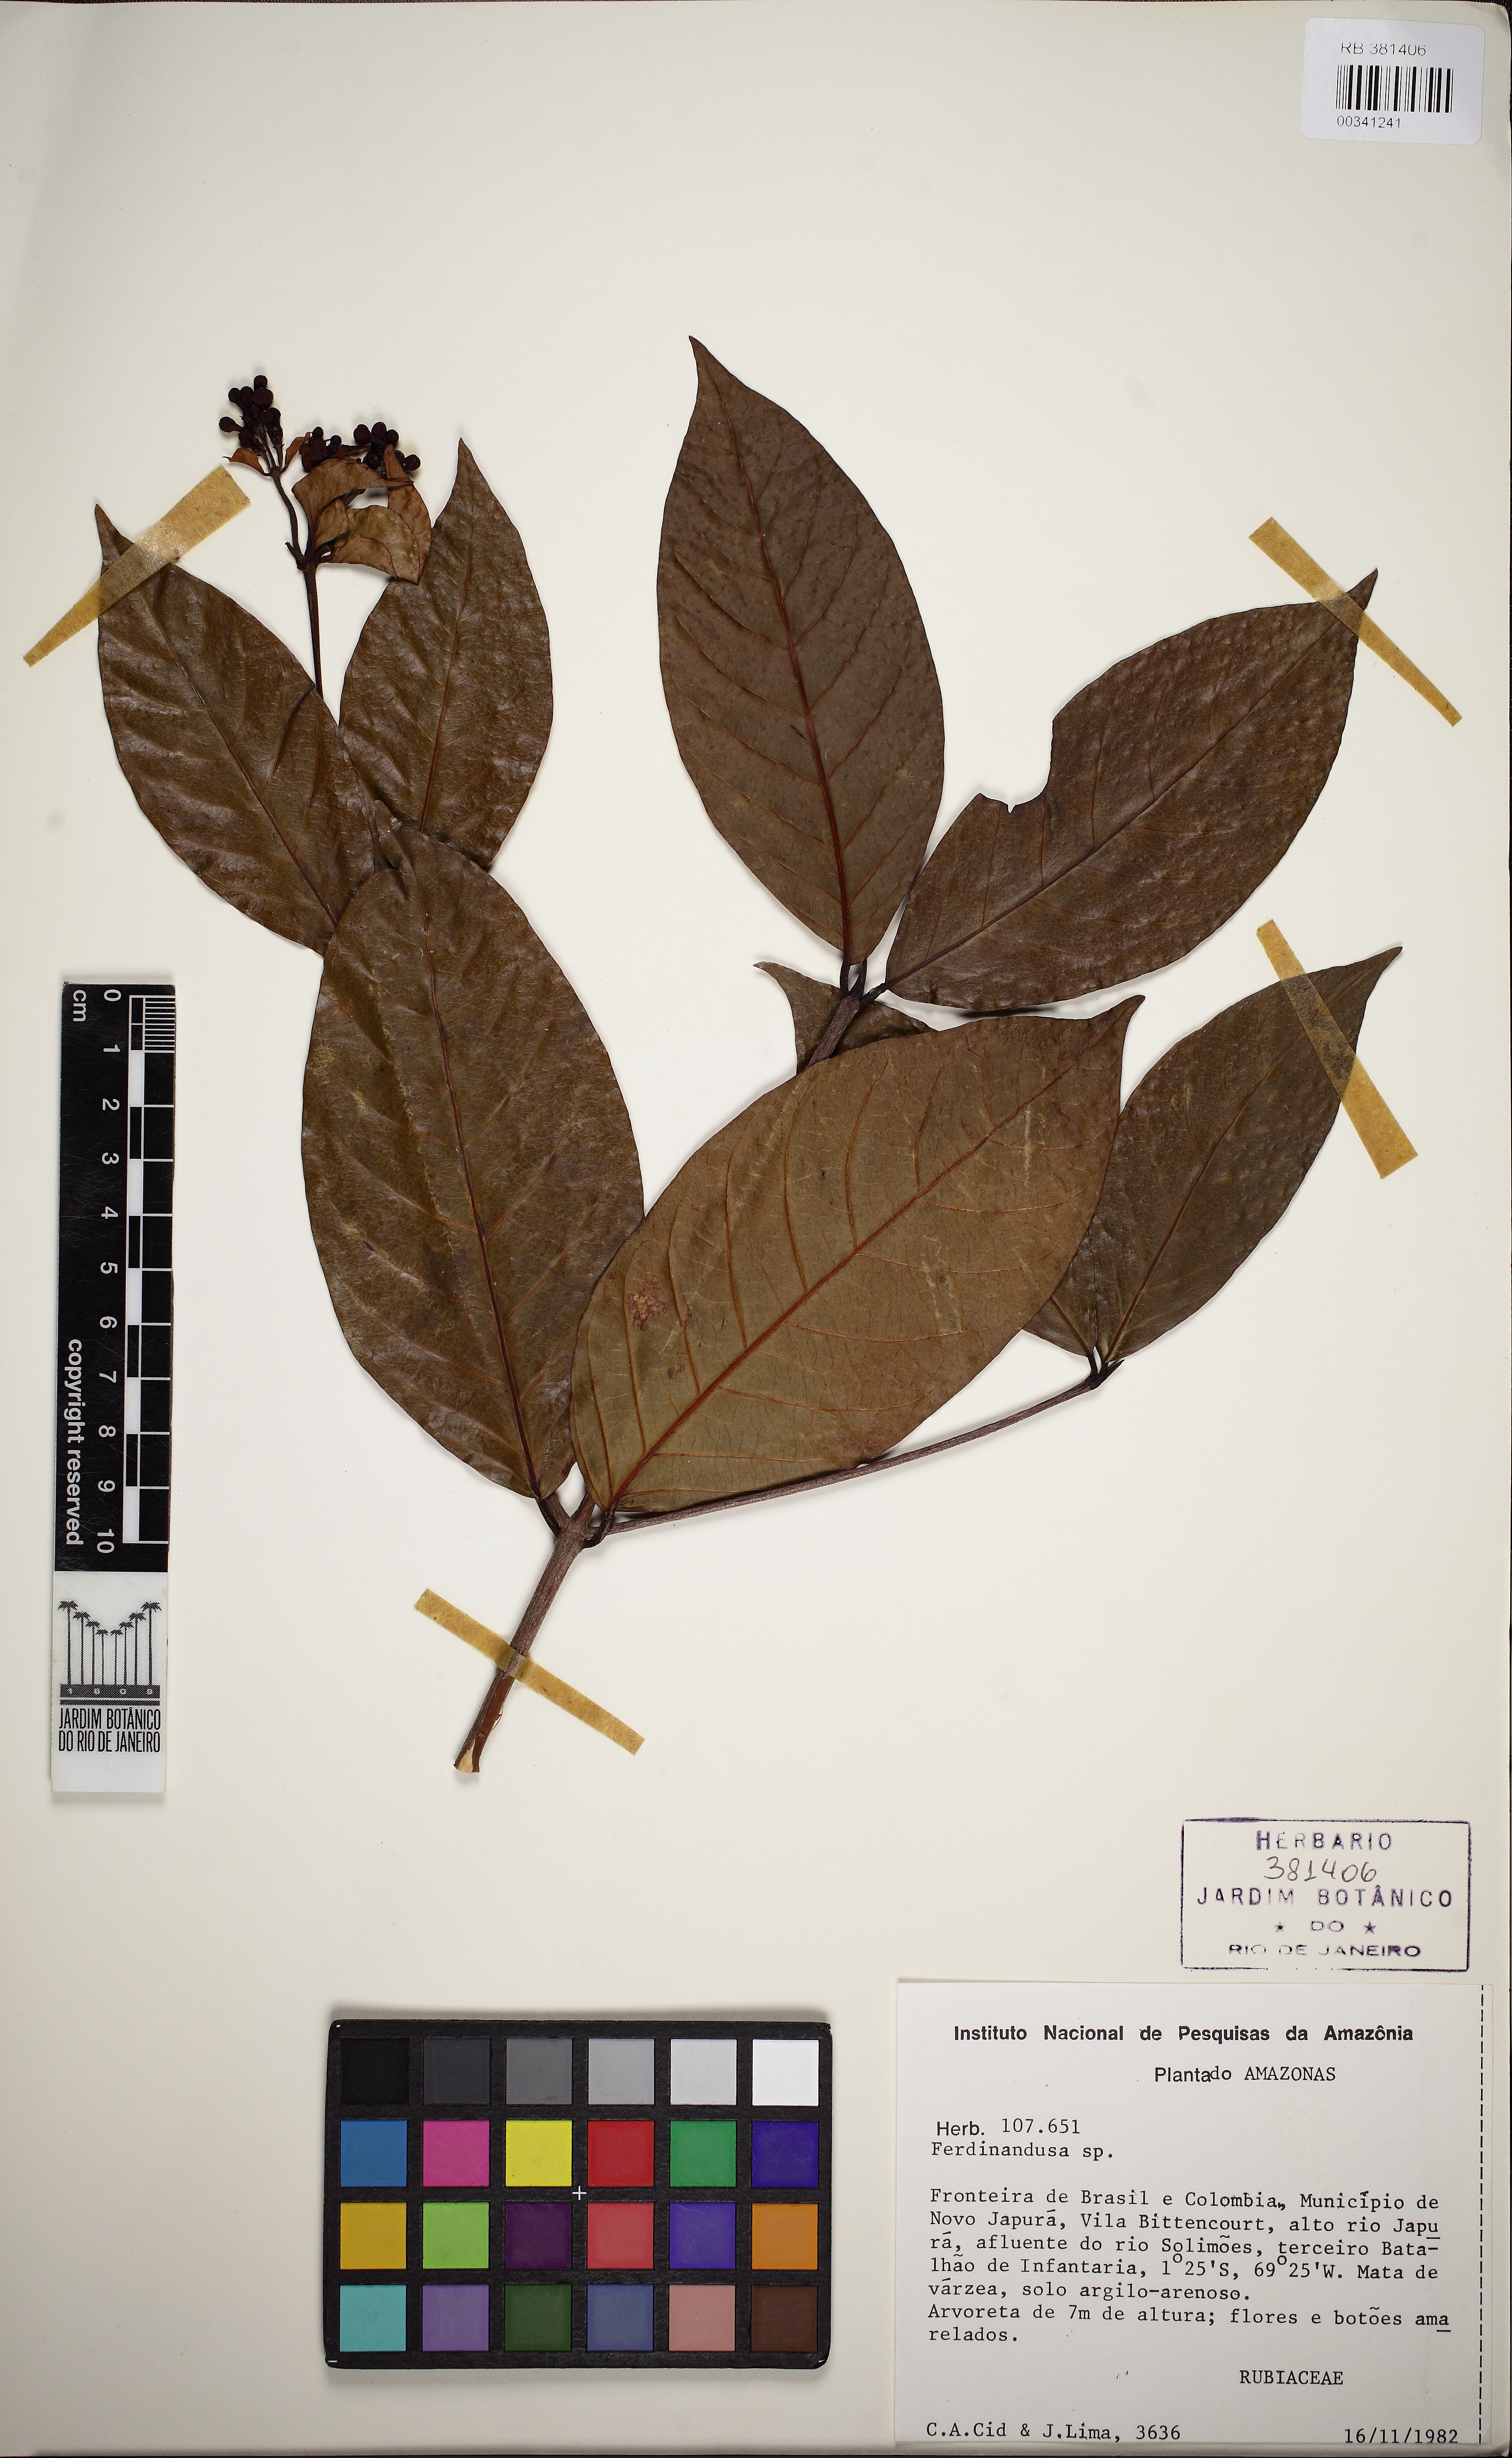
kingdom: Plantae
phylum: Tracheophyta
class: Magnoliopsida
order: Gentianales
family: Rubiaceae
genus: Ferdinandusa
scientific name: Ferdinandusa chlorantha
